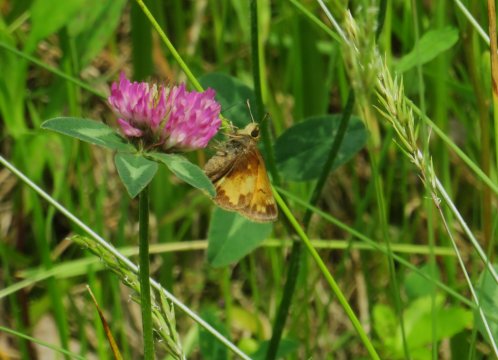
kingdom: Animalia
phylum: Arthropoda
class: Insecta
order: Lepidoptera
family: Hesperiidae
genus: Lon
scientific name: Lon hobomok
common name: Hobomok Skipper
